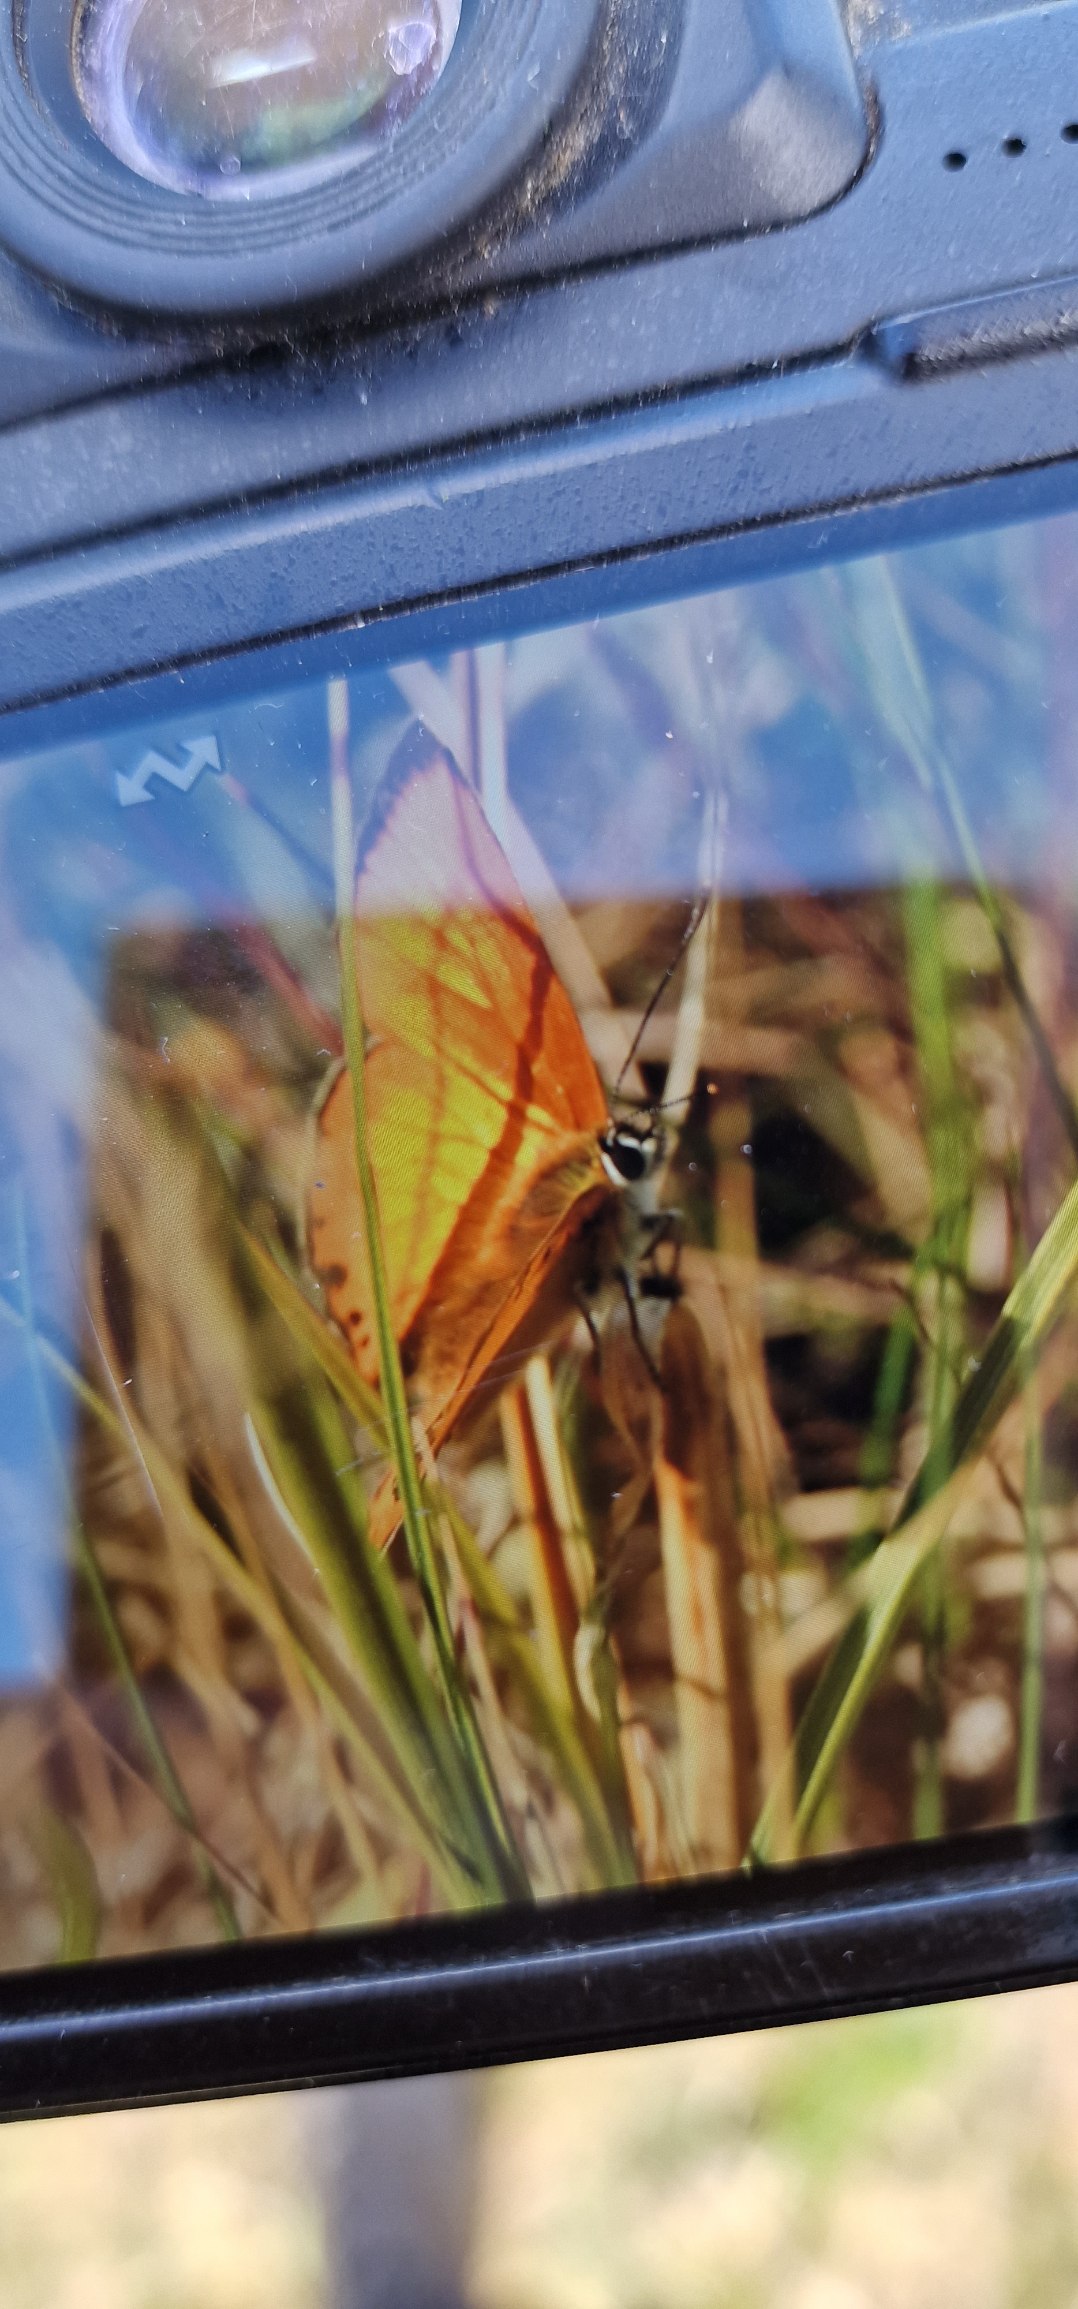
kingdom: Animalia
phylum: Arthropoda
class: Insecta
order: Lepidoptera
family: Lycaenidae
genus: Lycaena
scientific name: Lycaena virgaureae
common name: Dukatsommerfugl
